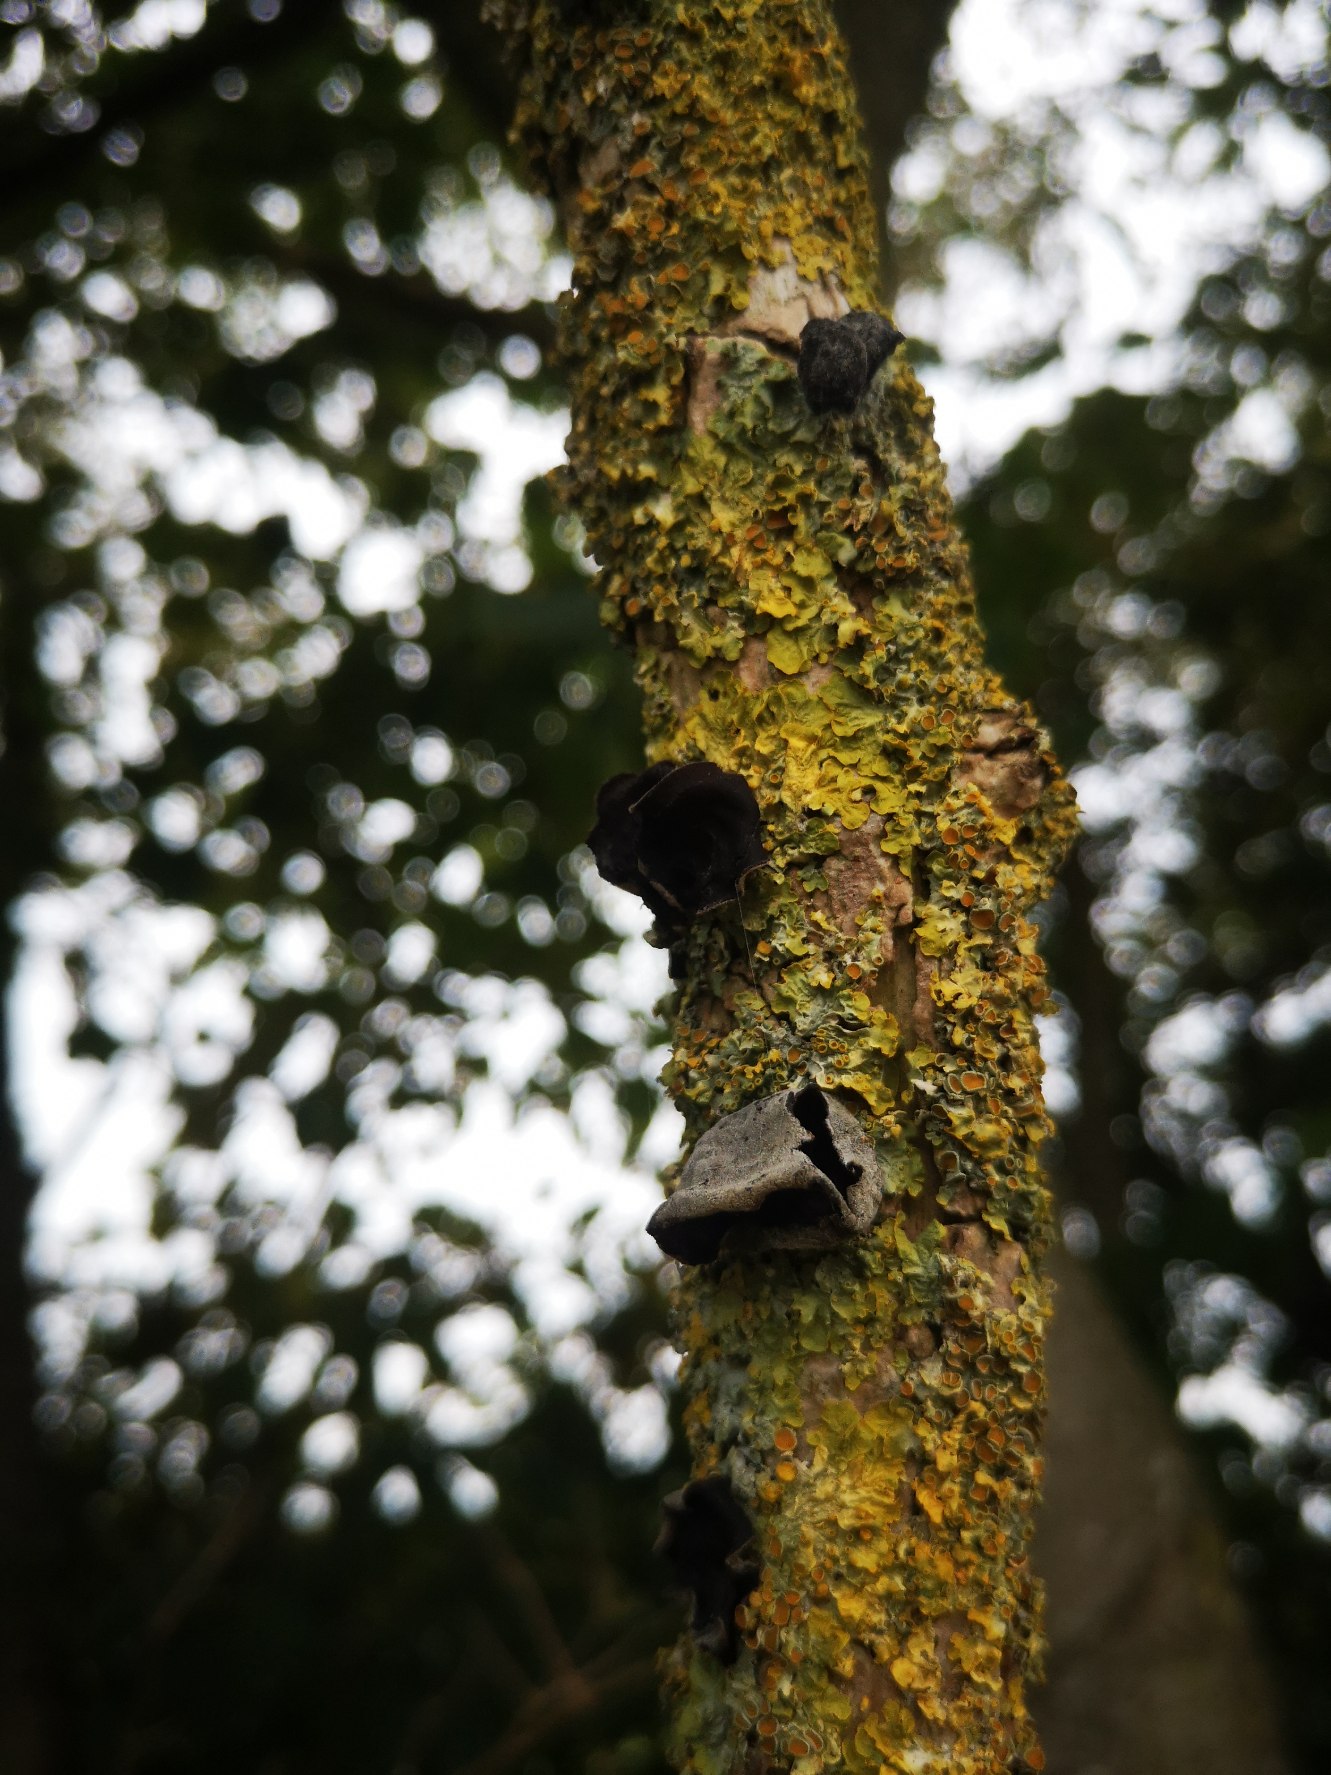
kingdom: Fungi
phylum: Basidiomycota
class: Agaricomycetes
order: Auriculariales
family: Auriculariaceae
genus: Auricularia
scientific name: Auricularia auricula-judae
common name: Almindelig judasøre
